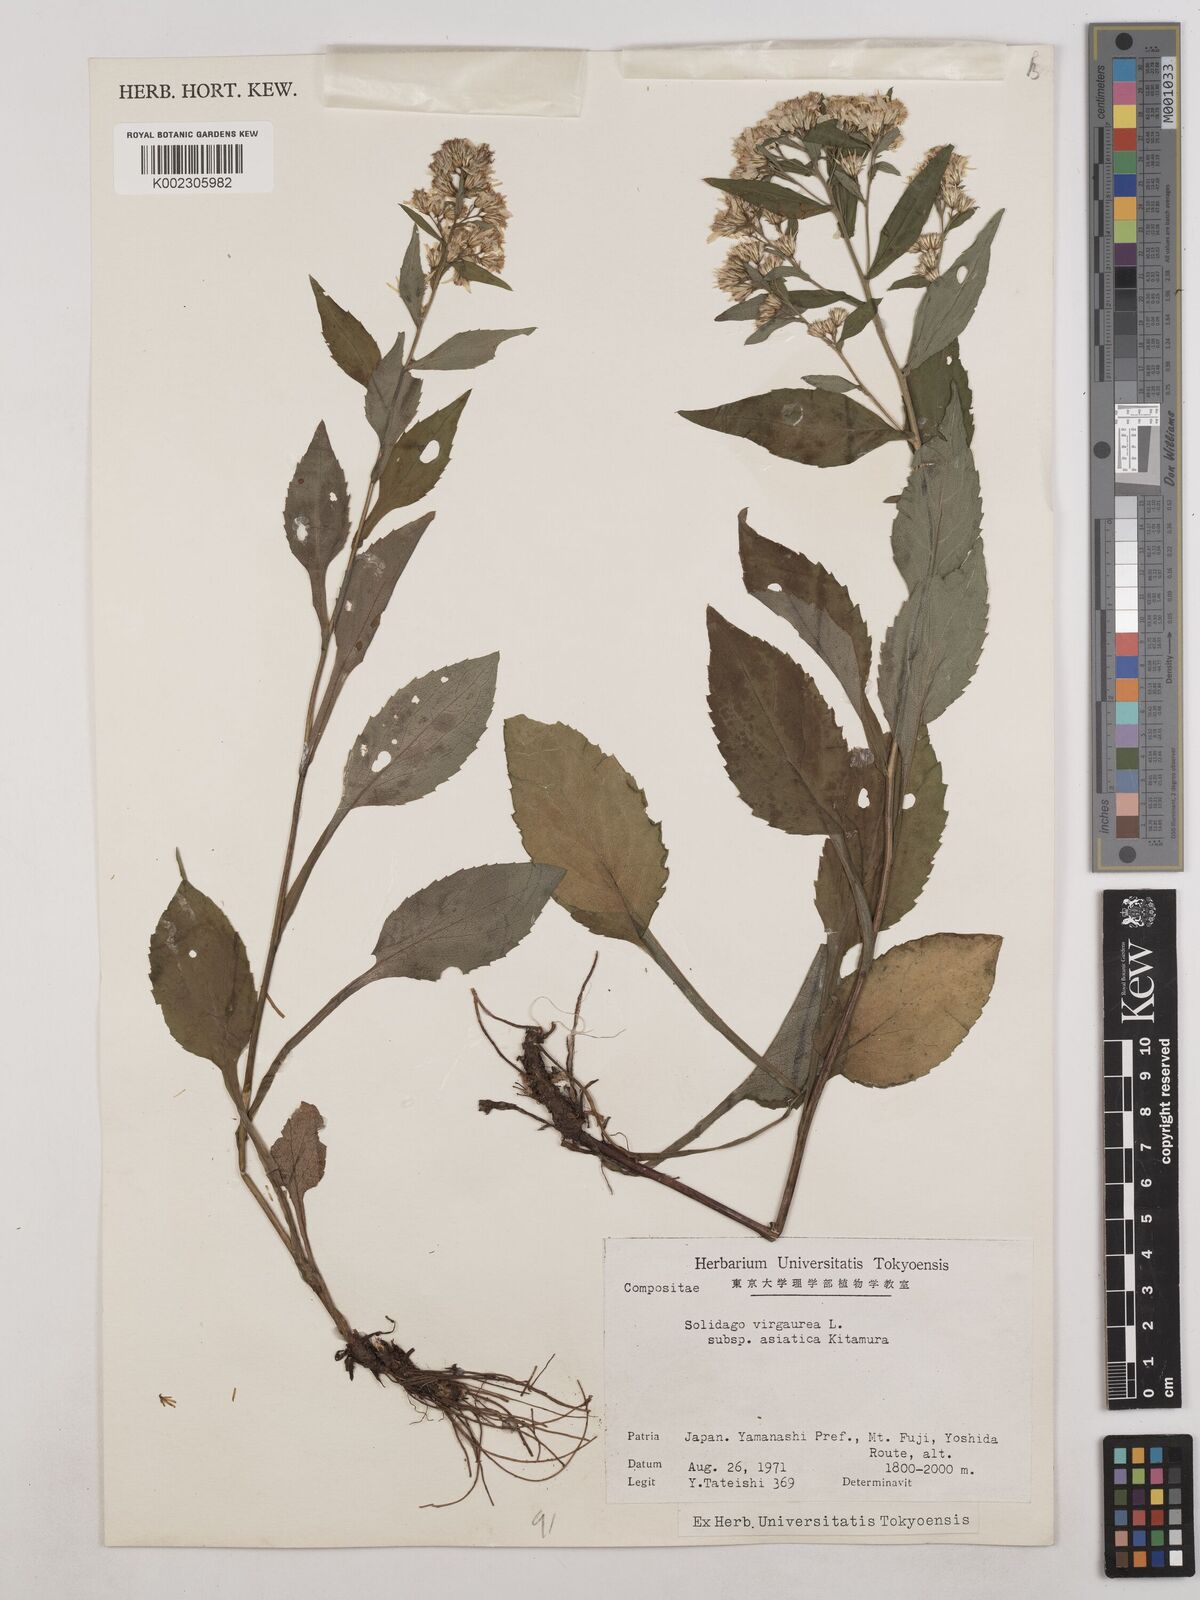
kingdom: Plantae
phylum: Tracheophyta
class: Magnoliopsida
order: Asterales
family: Asteraceae
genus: Solidago
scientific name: Solidago virgaurea
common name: Goldenrod
